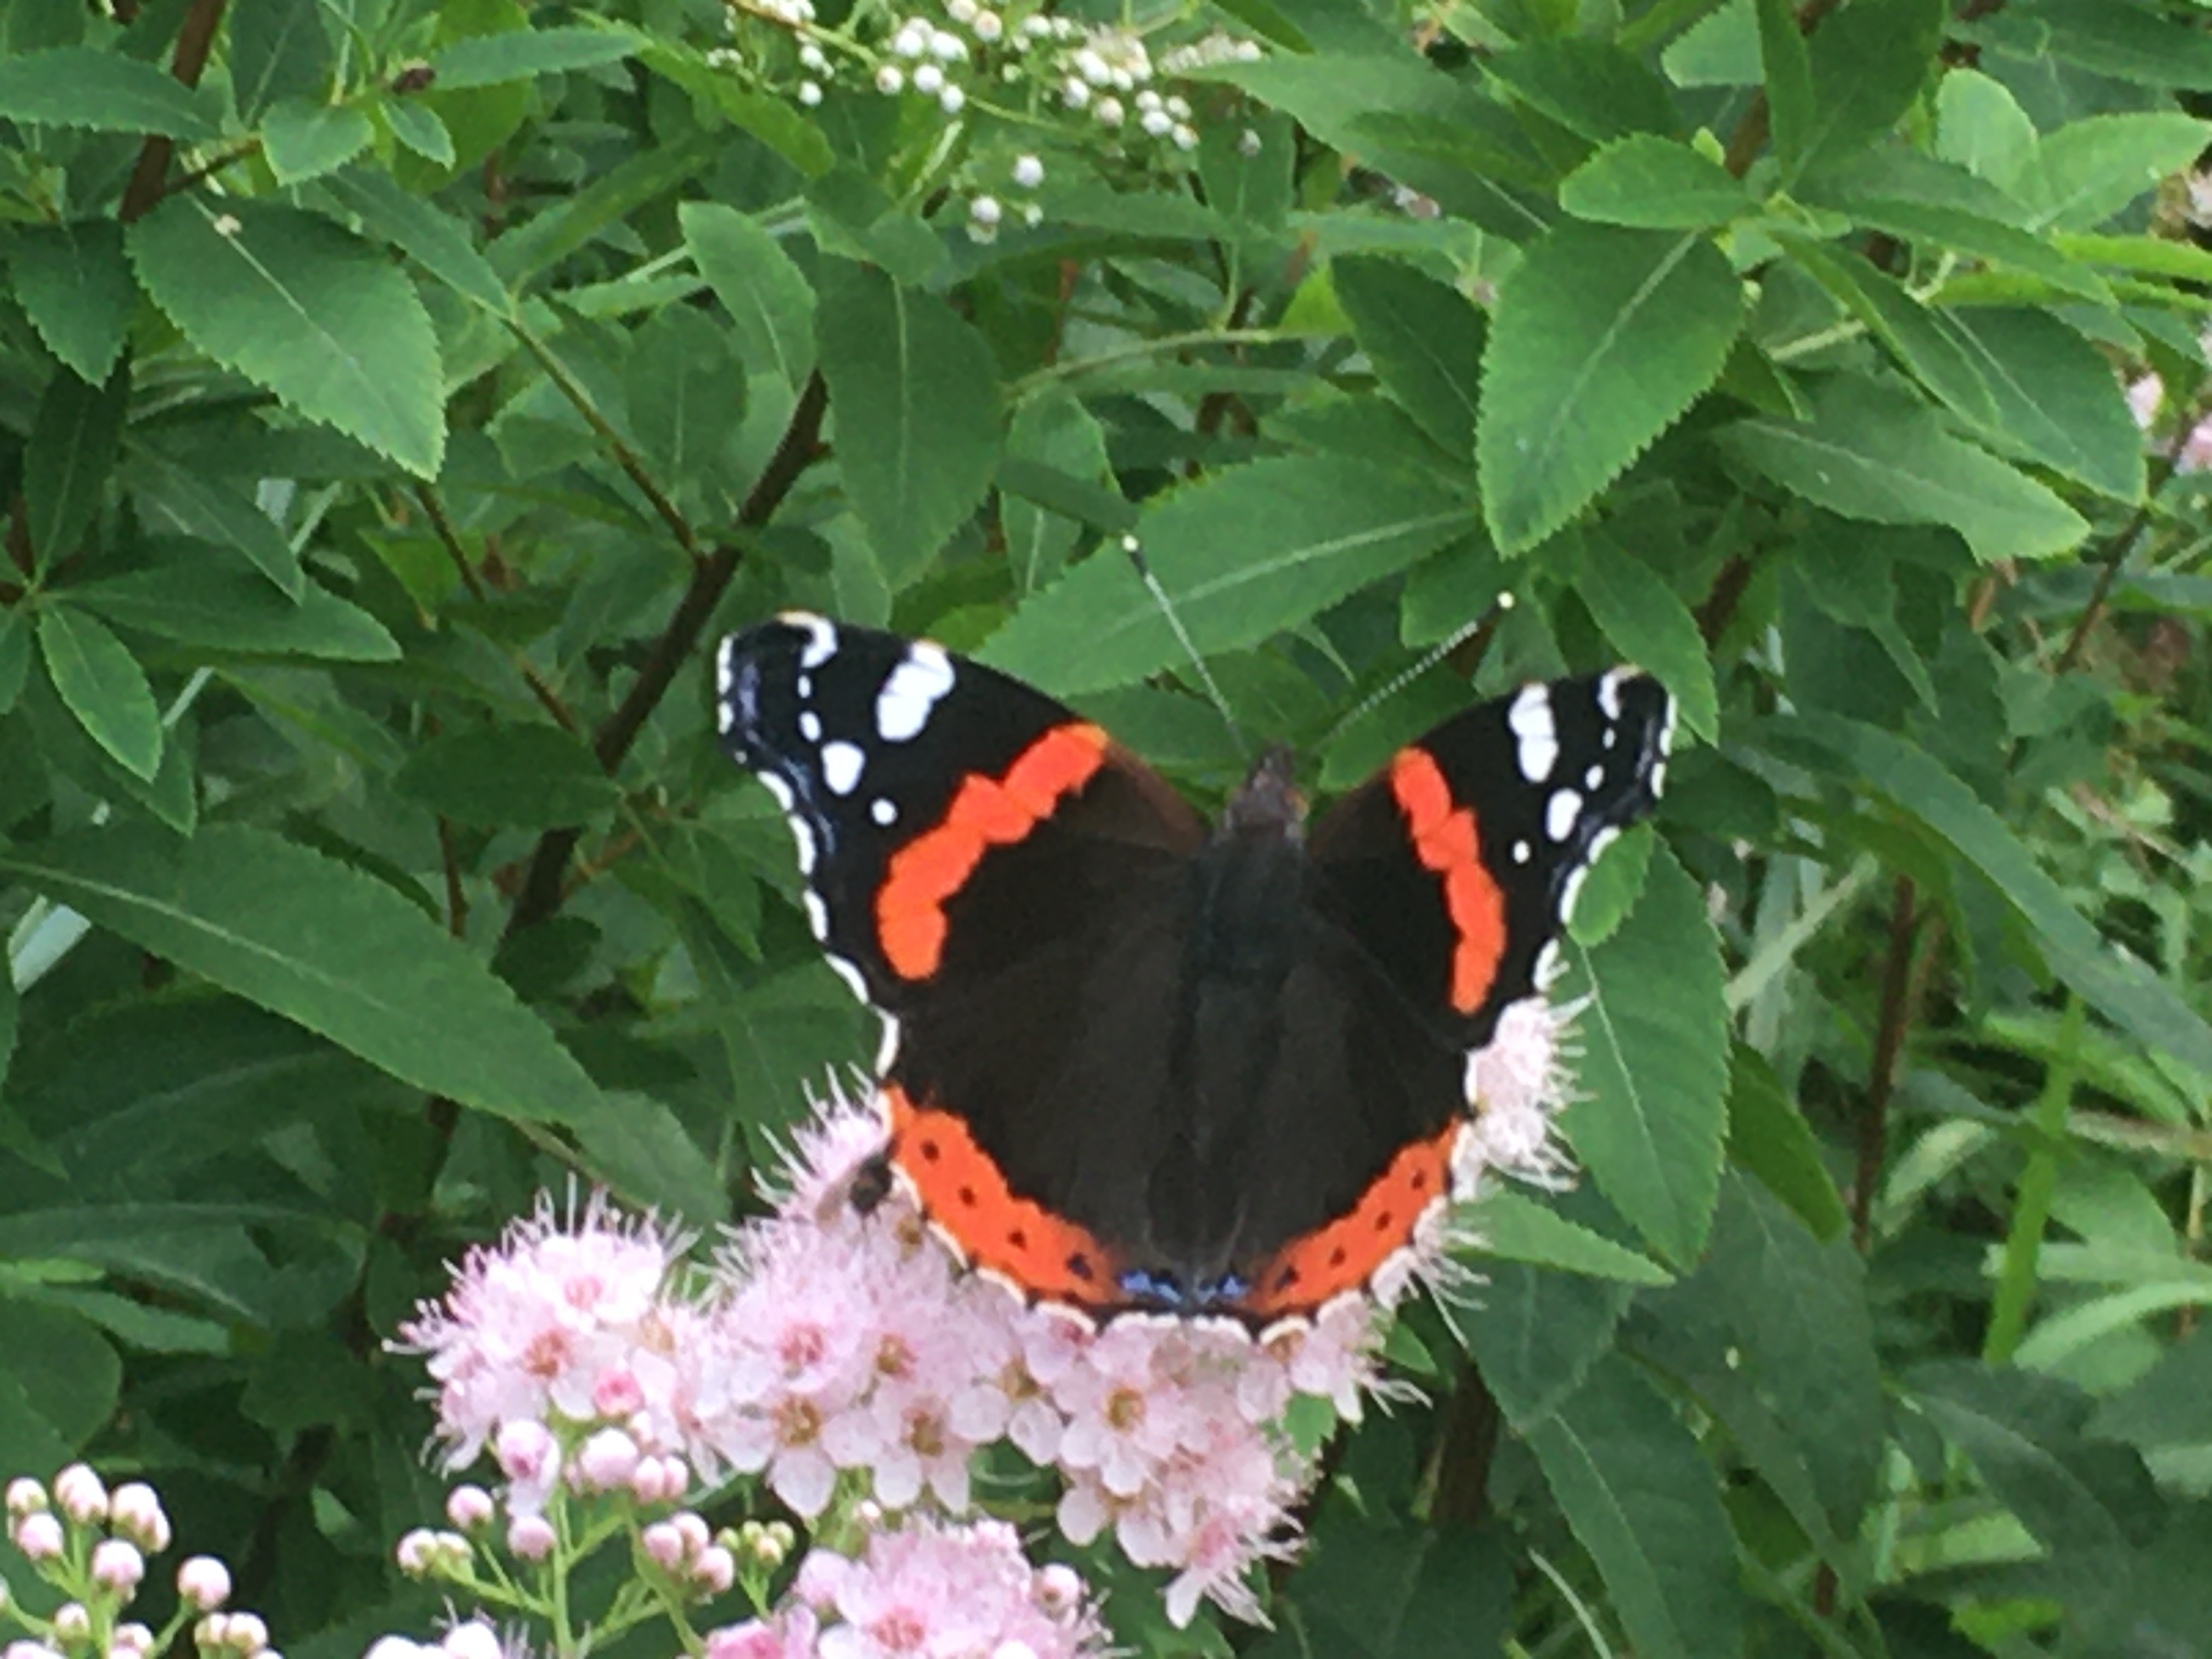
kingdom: Animalia
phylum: Arthropoda
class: Insecta
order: Lepidoptera
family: Nymphalidae
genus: Vanessa
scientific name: Vanessa atalanta
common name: Red admiral
